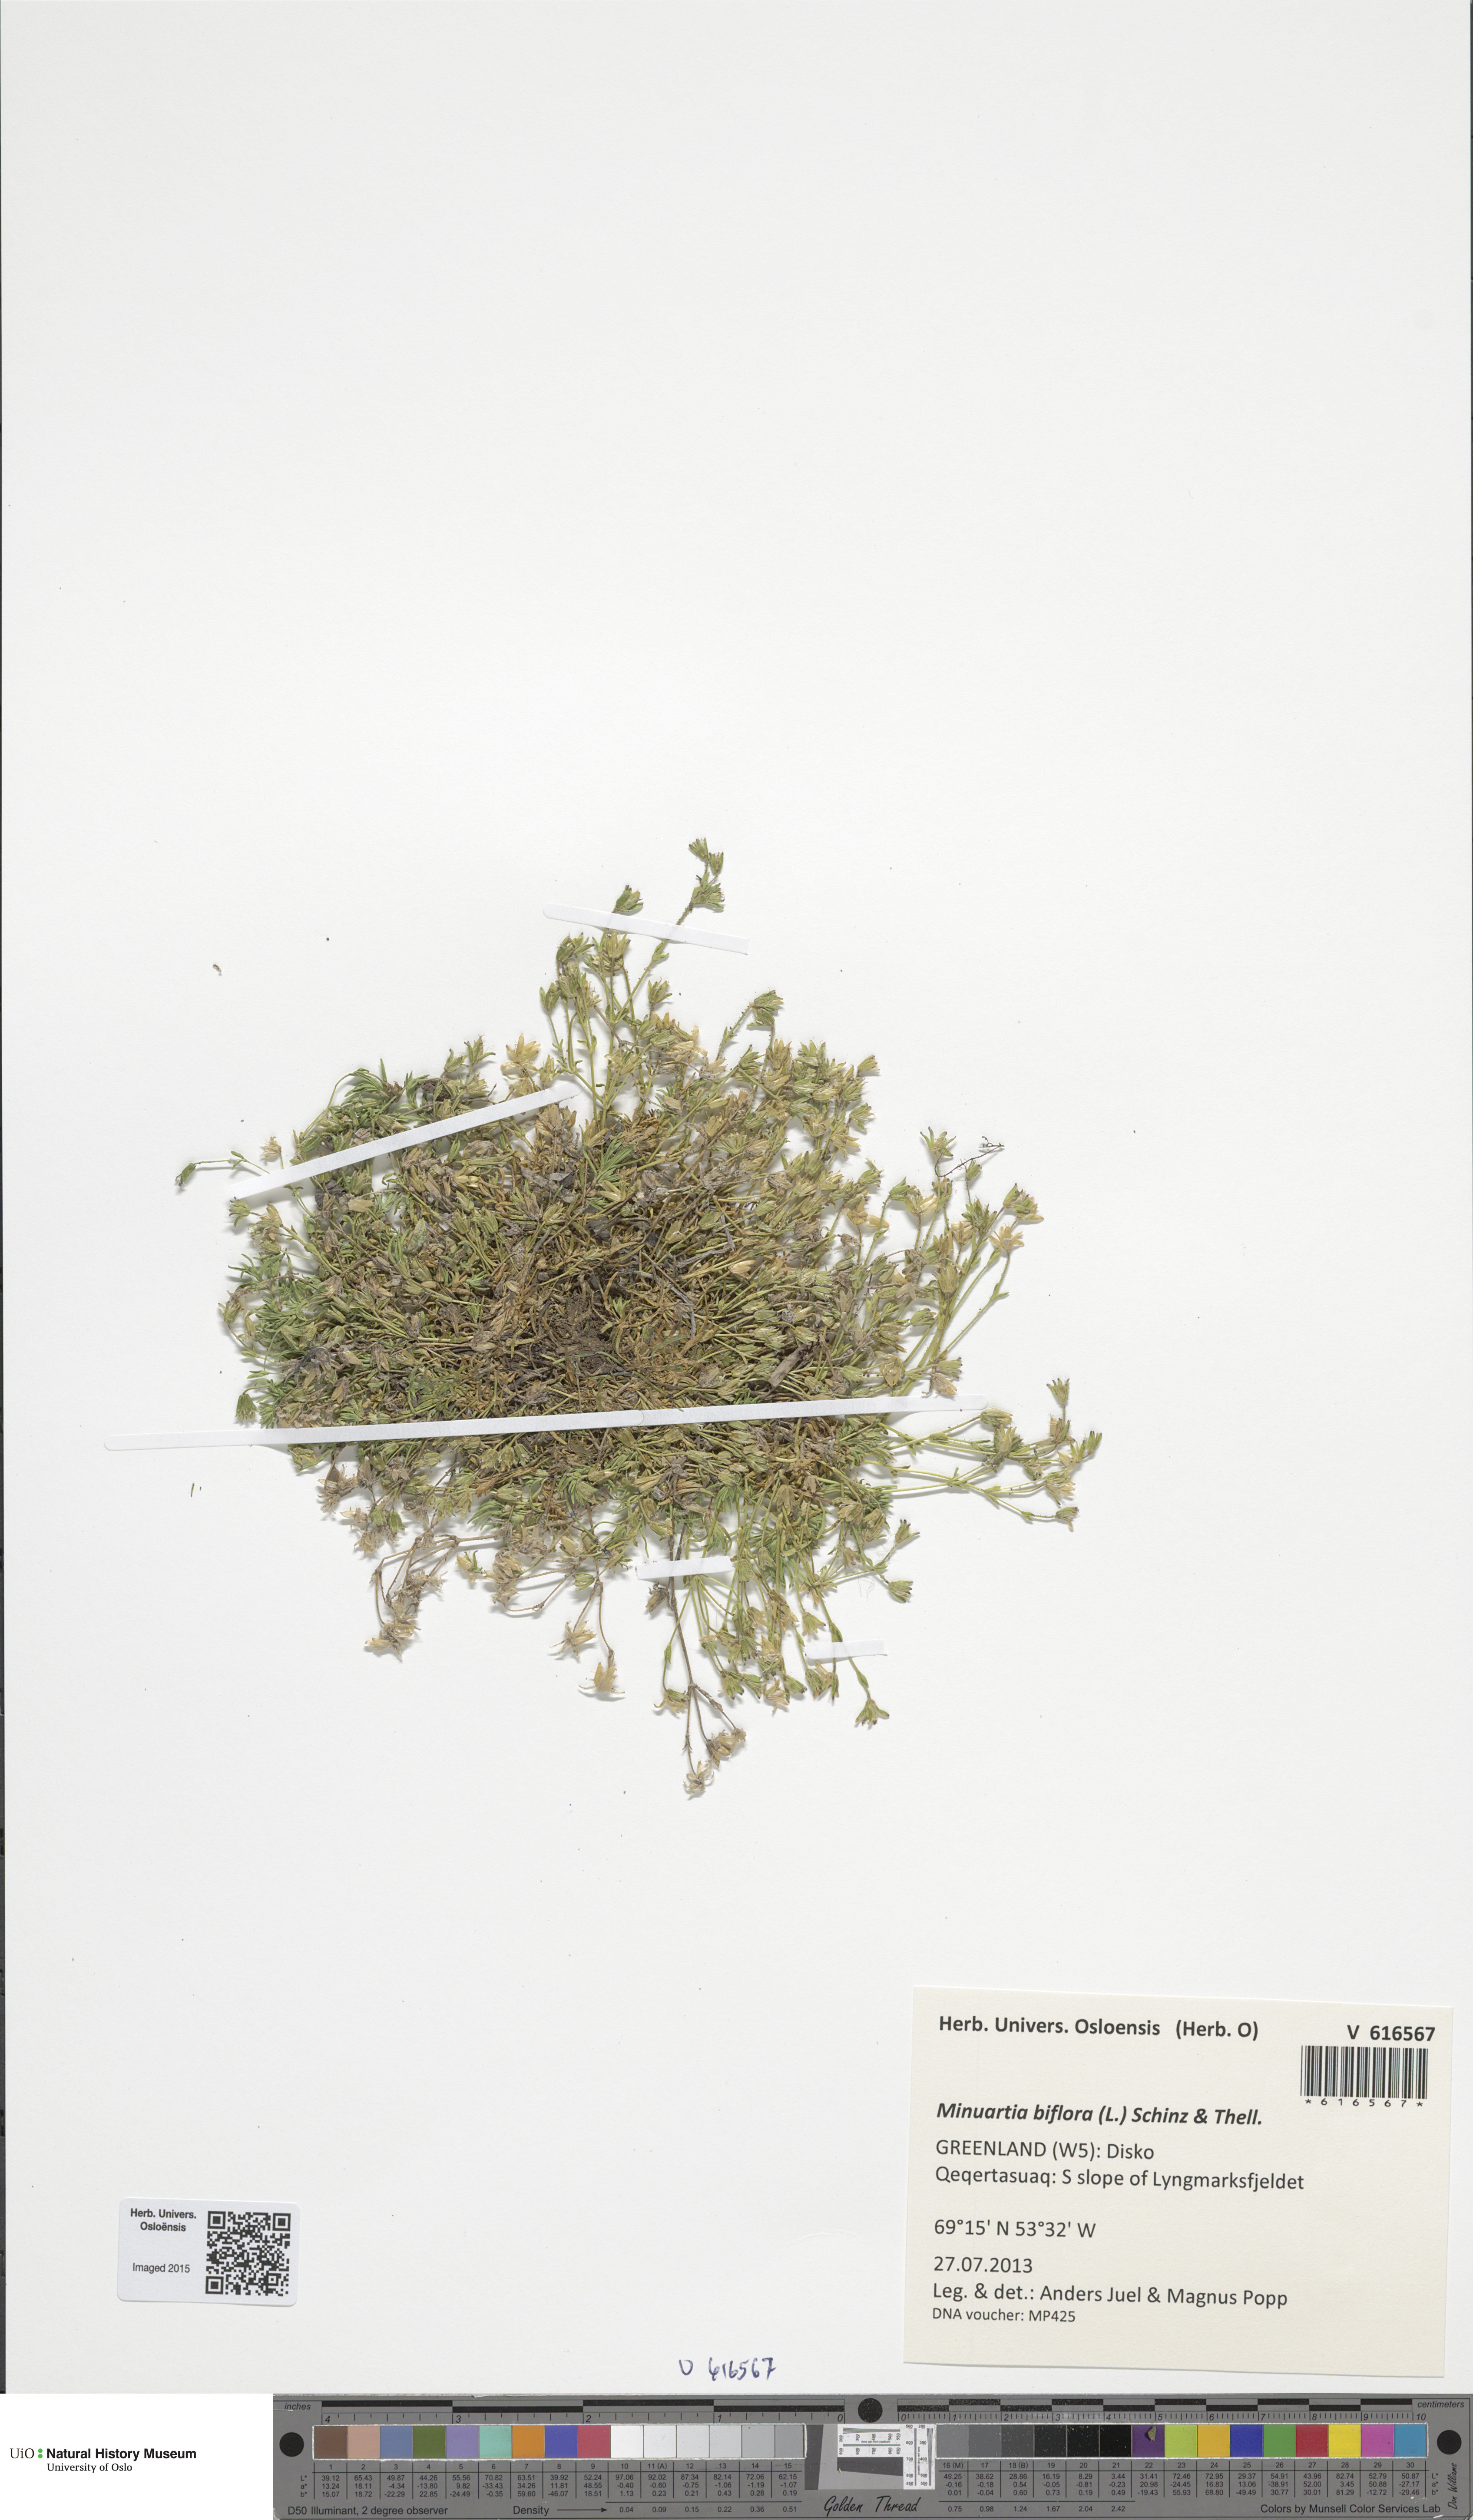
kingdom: Plantae
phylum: Tracheophyta
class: Magnoliopsida
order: Caryophyllales
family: Caryophyllaceae
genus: Cherleria
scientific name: Cherleria biflora
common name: Mountain sandwort
